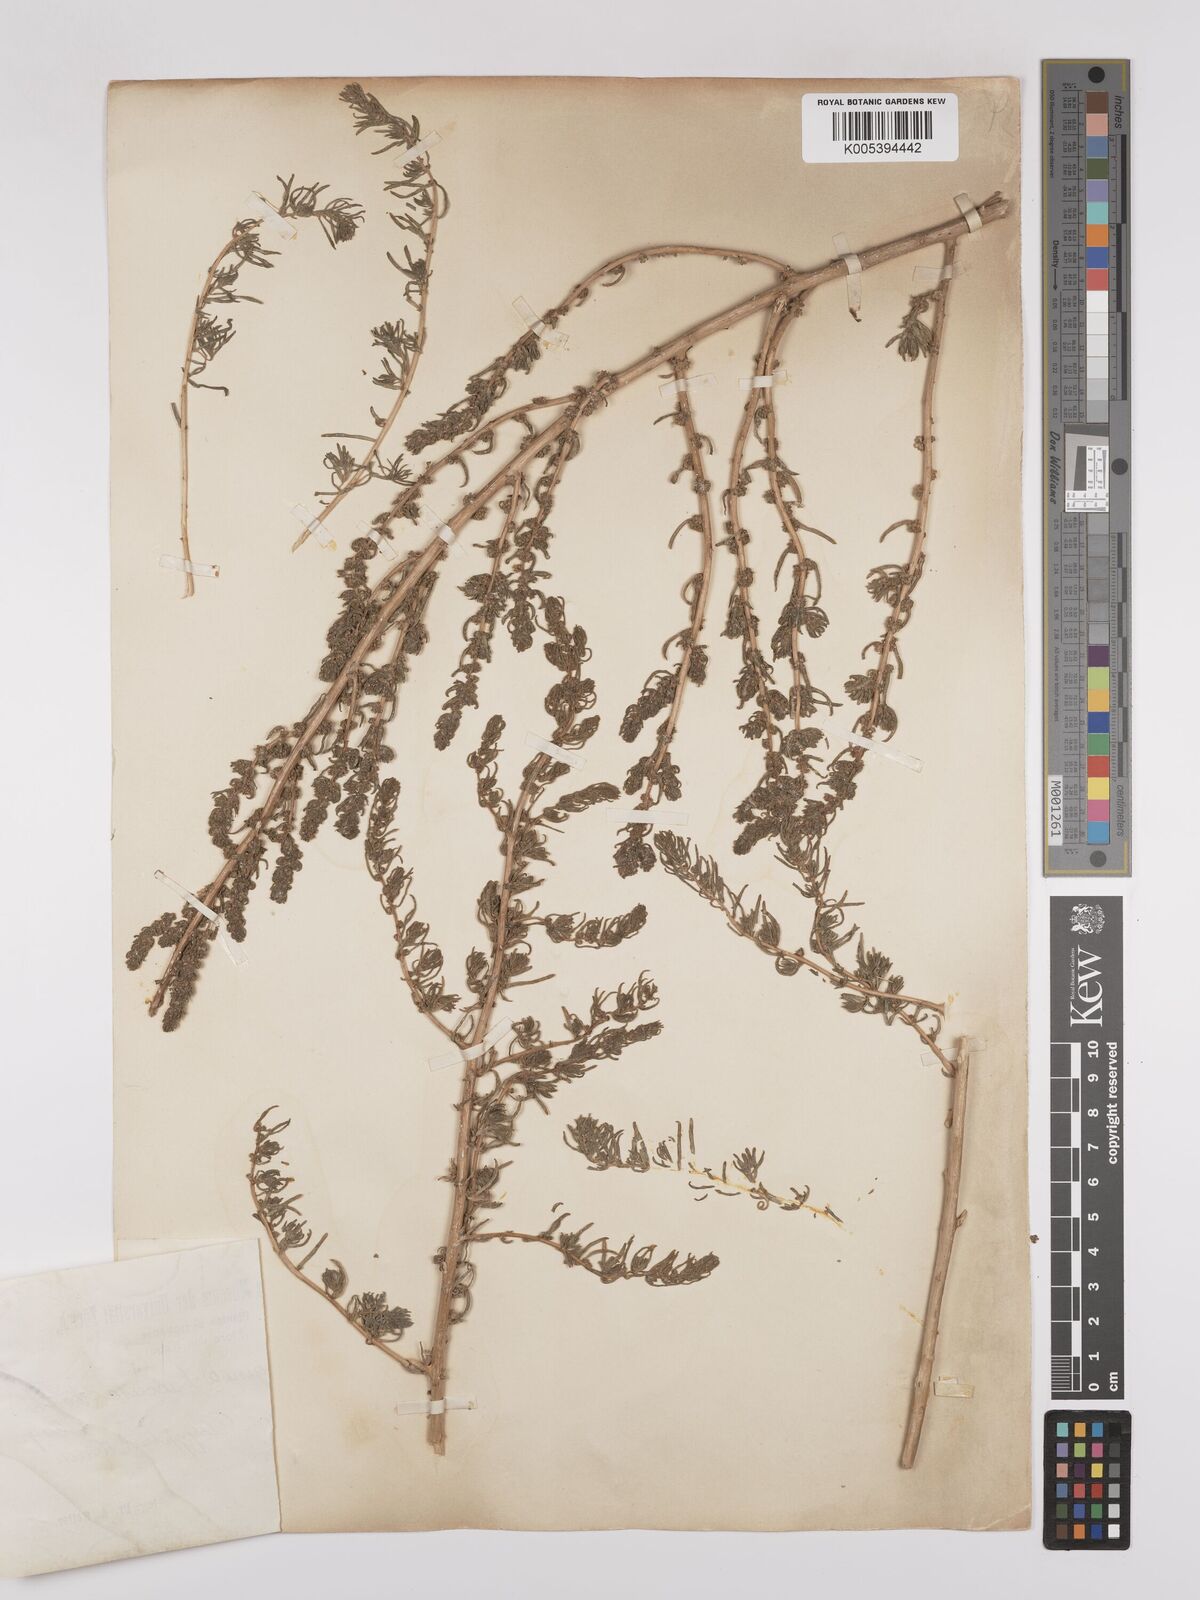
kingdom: Plantae
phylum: Tracheophyta
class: Magnoliopsida
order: Caryophyllales
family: Amaranthaceae
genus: Suaeda
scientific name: Suaeda aegyptiaca
